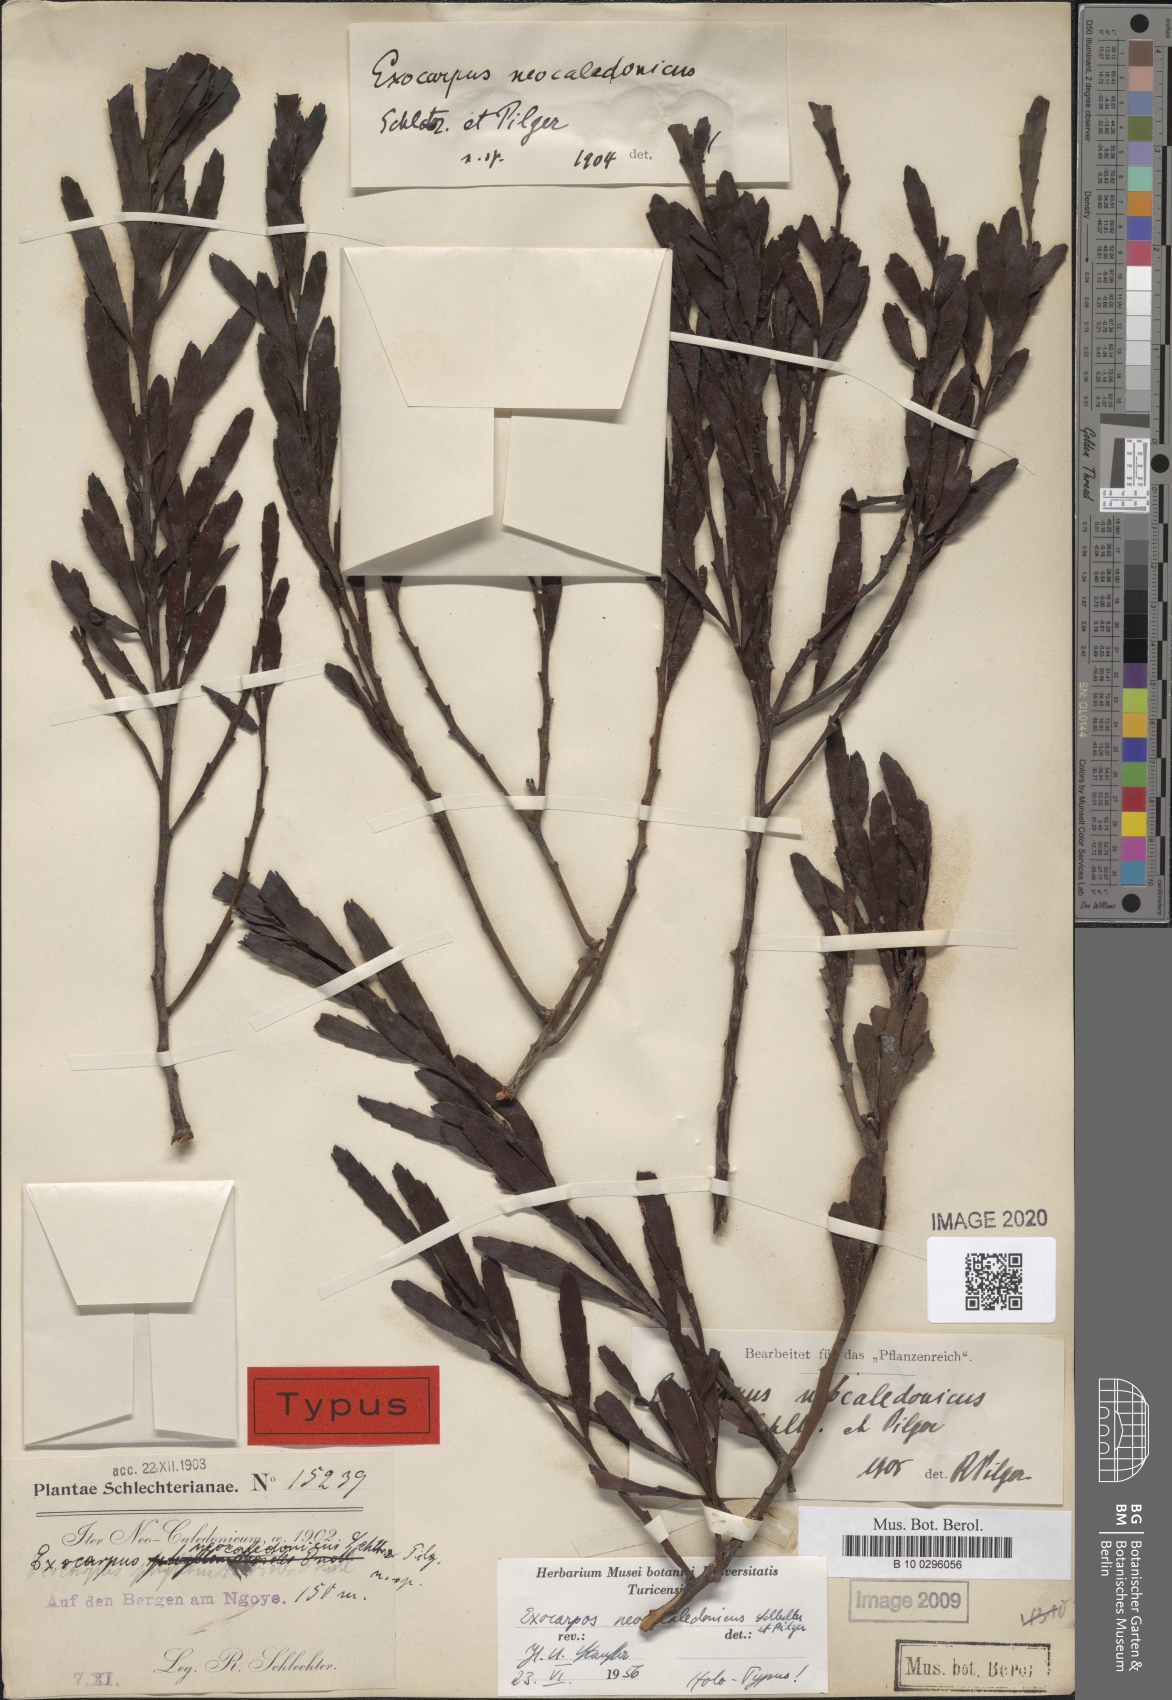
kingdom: Plantae
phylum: Tracheophyta
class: Magnoliopsida
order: Santalales
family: Santalaceae
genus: Exocarpos
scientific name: Exocarpos neocaledonicus
